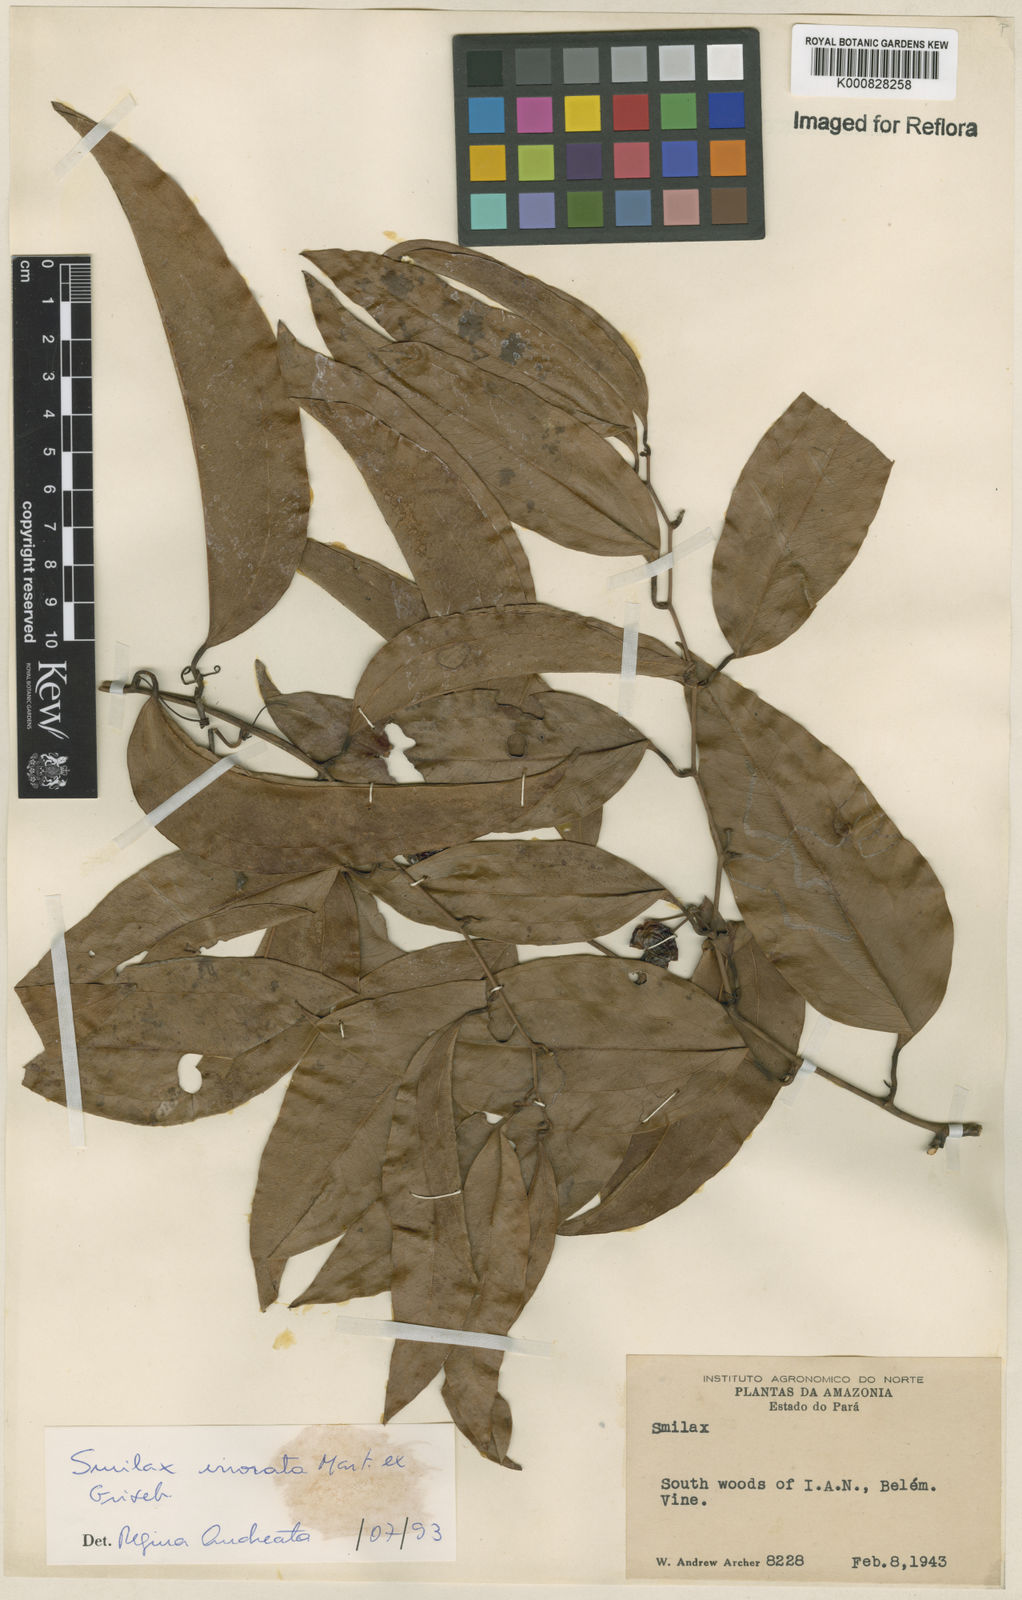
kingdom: Plantae
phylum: Tracheophyta
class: Liliopsida
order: Liliales
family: Smilacaceae
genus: Smilax
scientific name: Smilax irrorata
